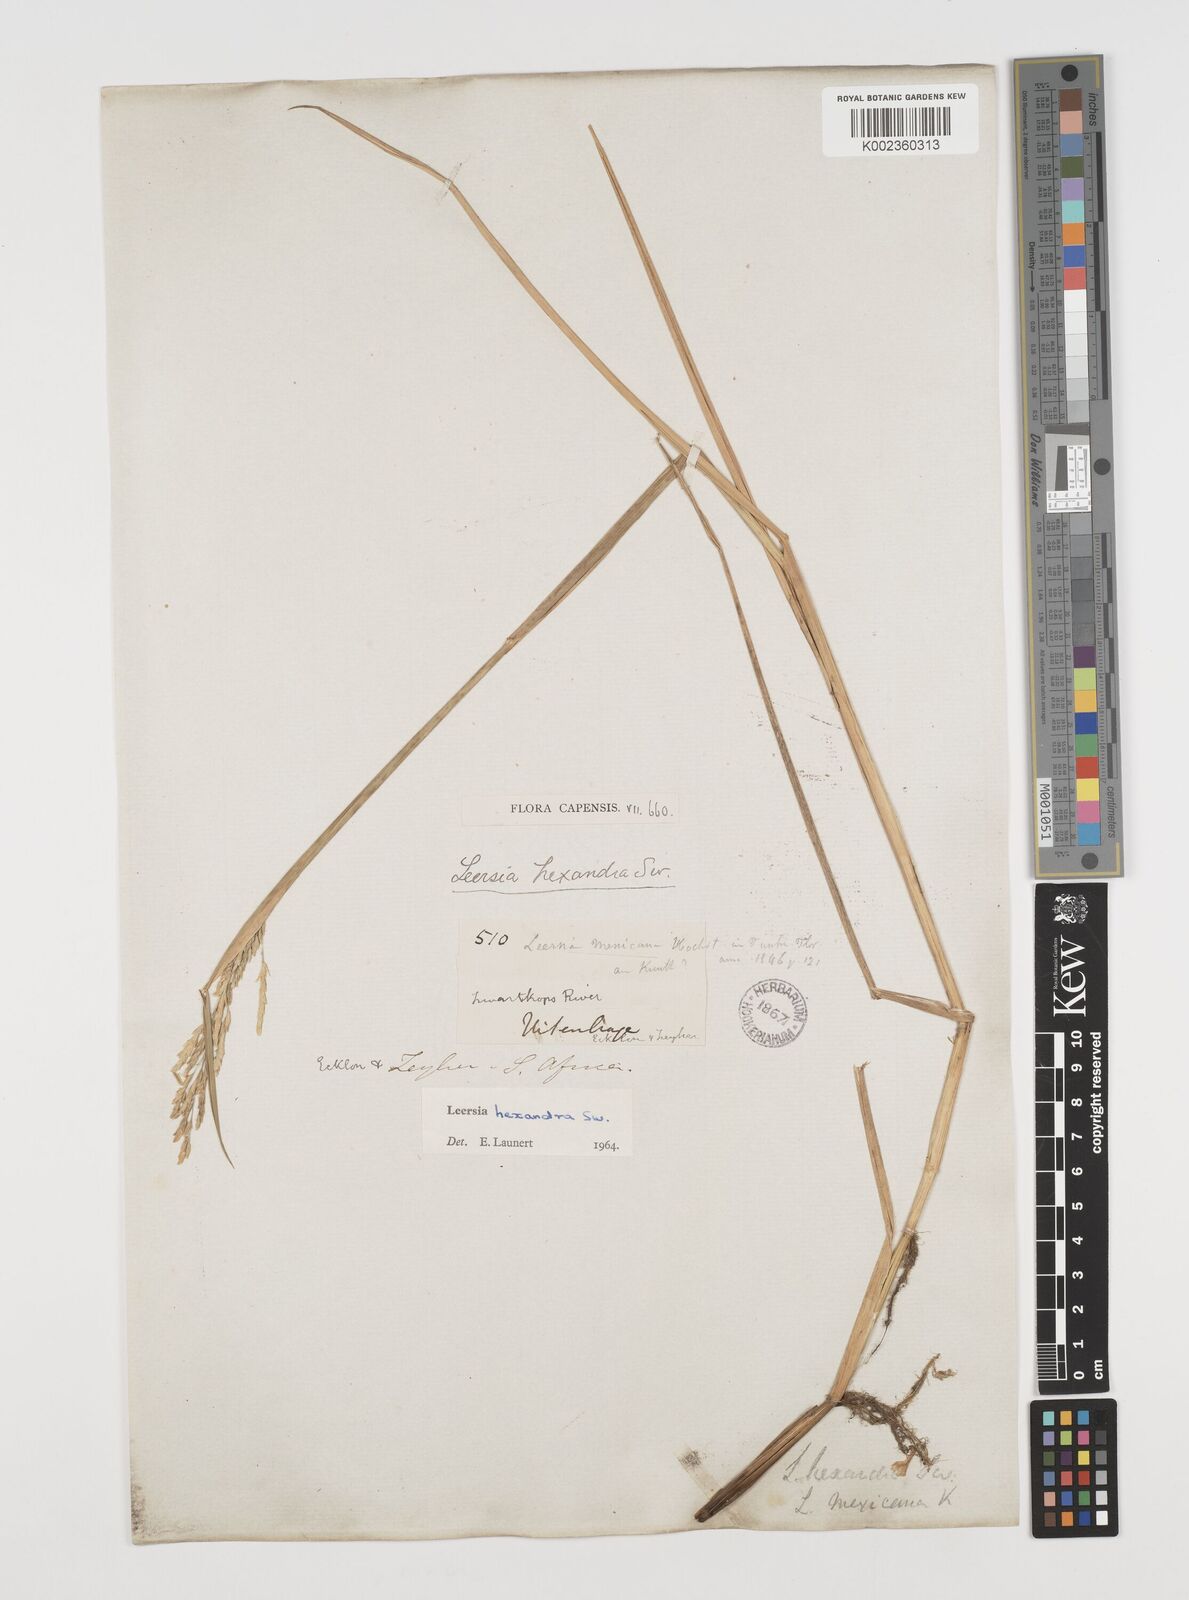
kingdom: Plantae
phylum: Tracheophyta
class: Liliopsida
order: Poales
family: Poaceae
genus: Leersia
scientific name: Leersia hexandra
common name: Southern cut grass
